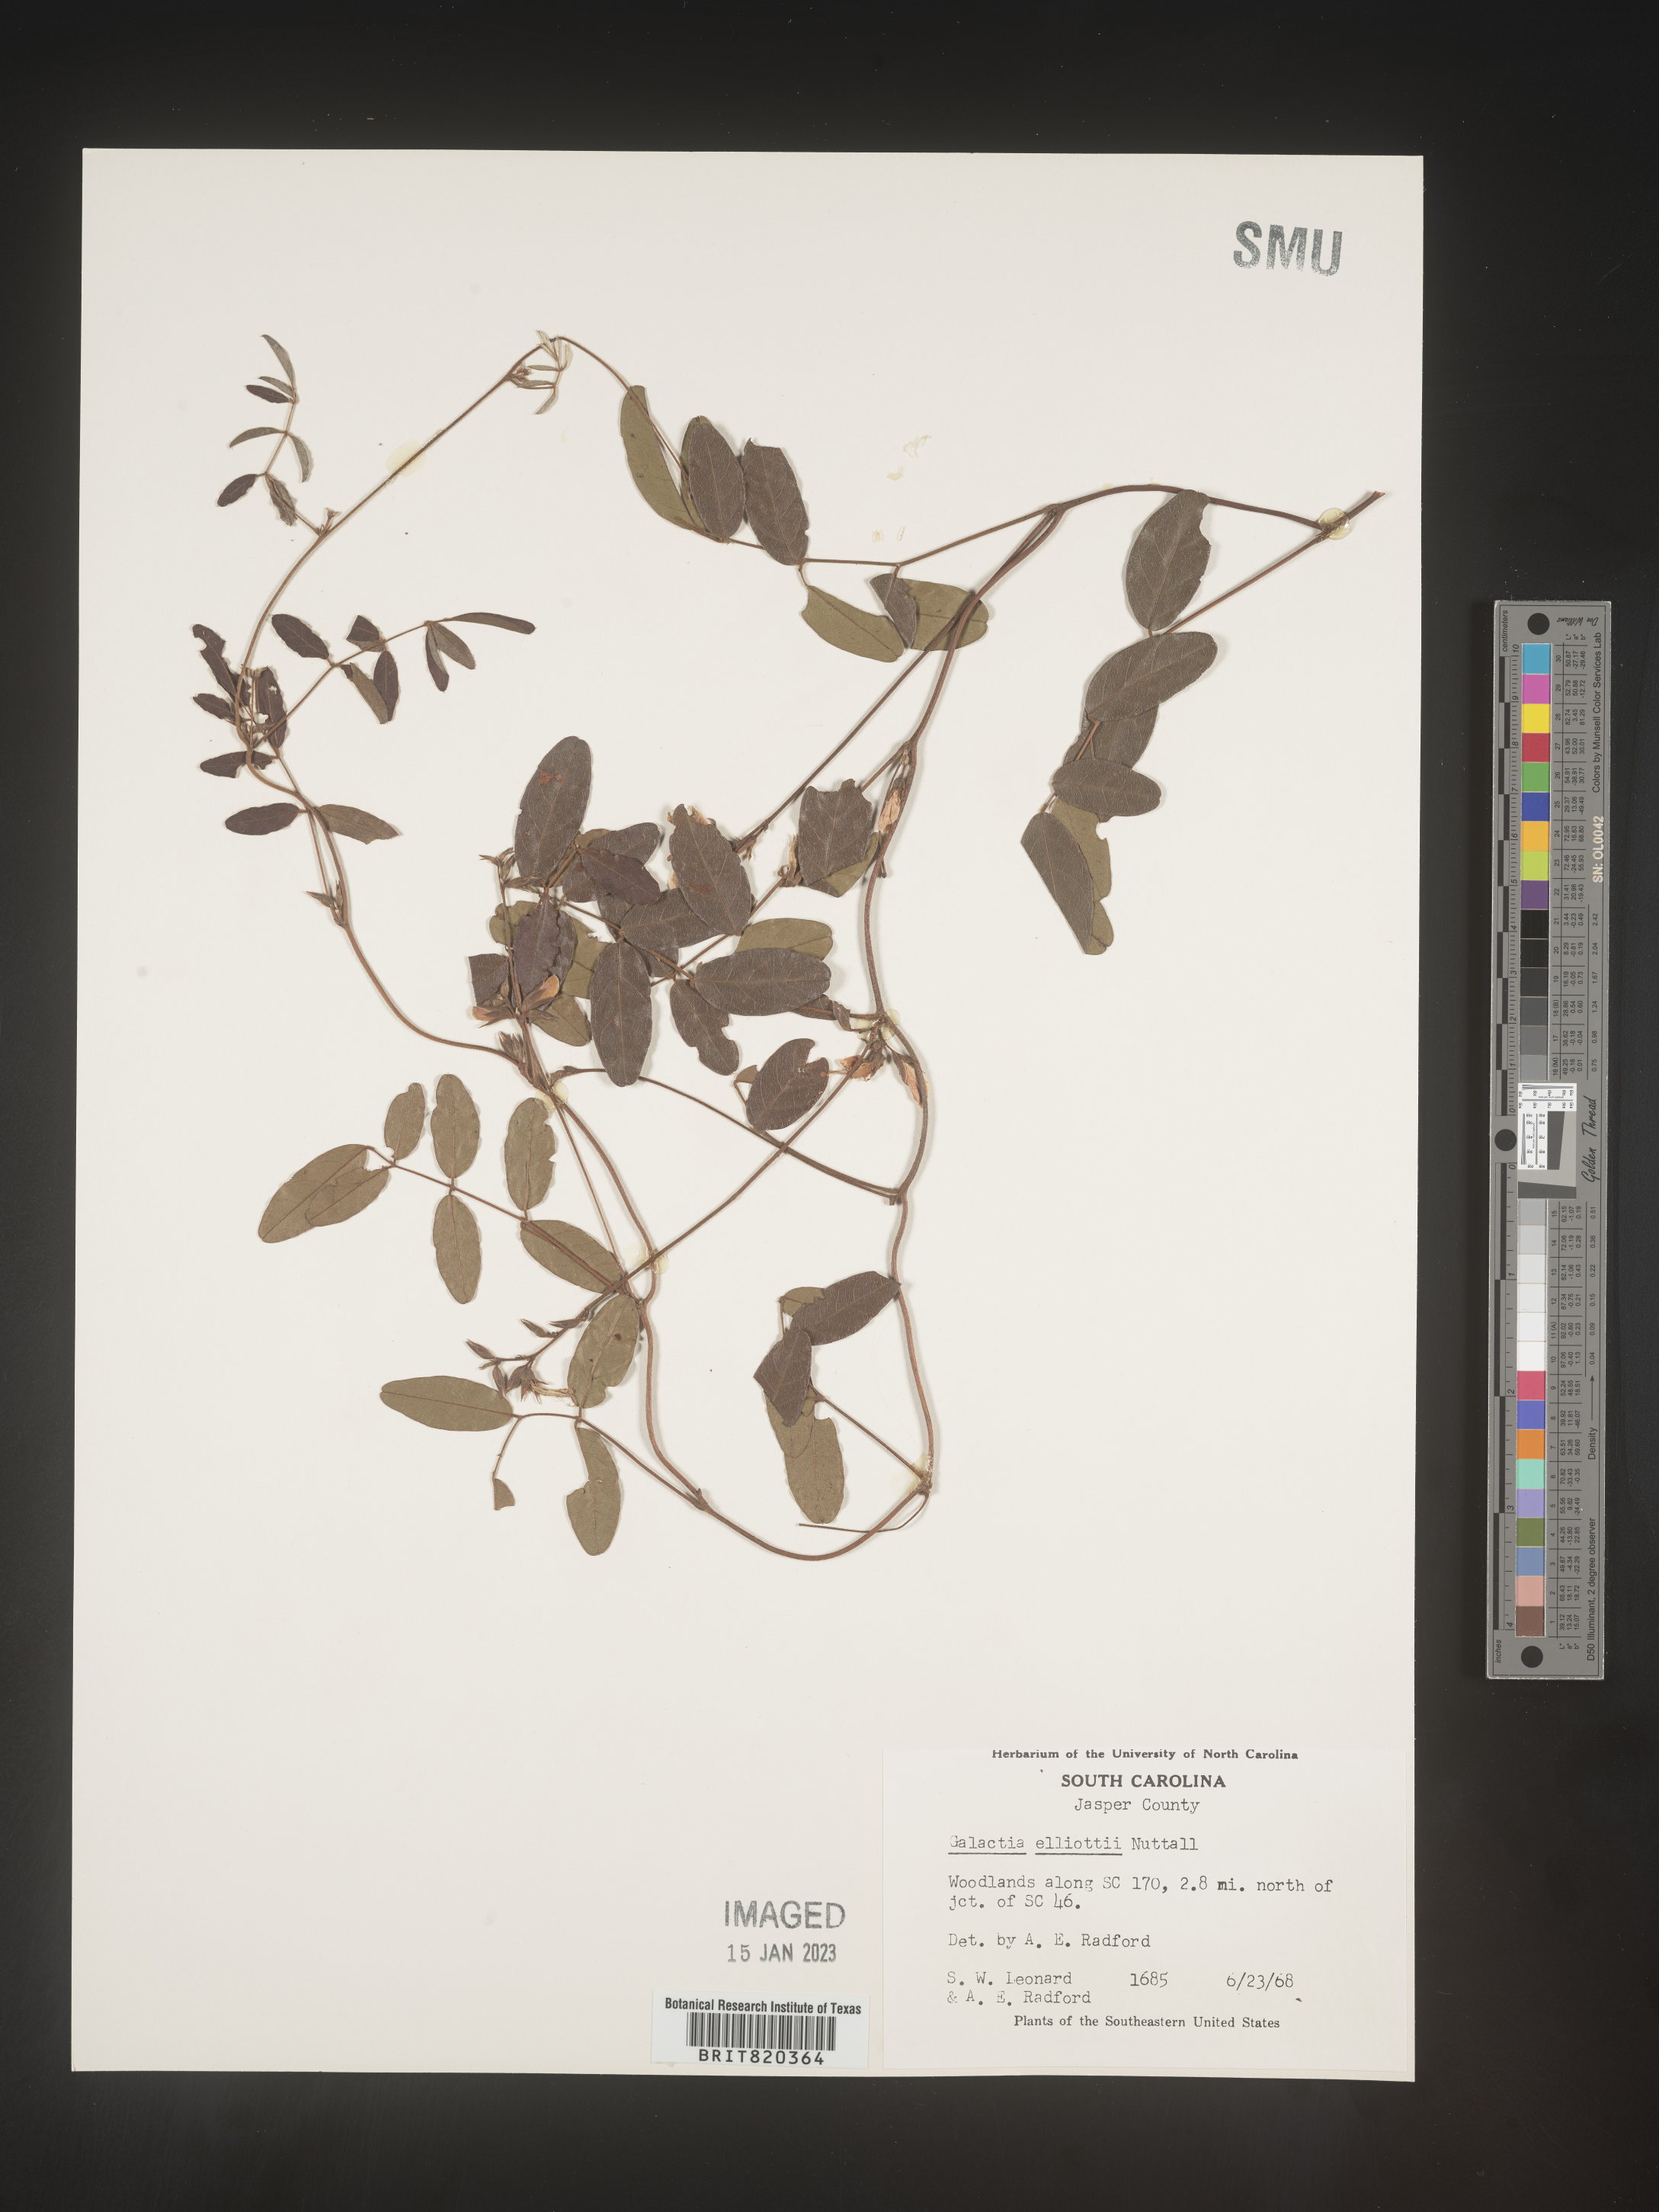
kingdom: Plantae
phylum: Tracheophyta
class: Magnoliopsida
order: Fabales
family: Fabaceae
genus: Galactia
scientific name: Galactia elliottii
